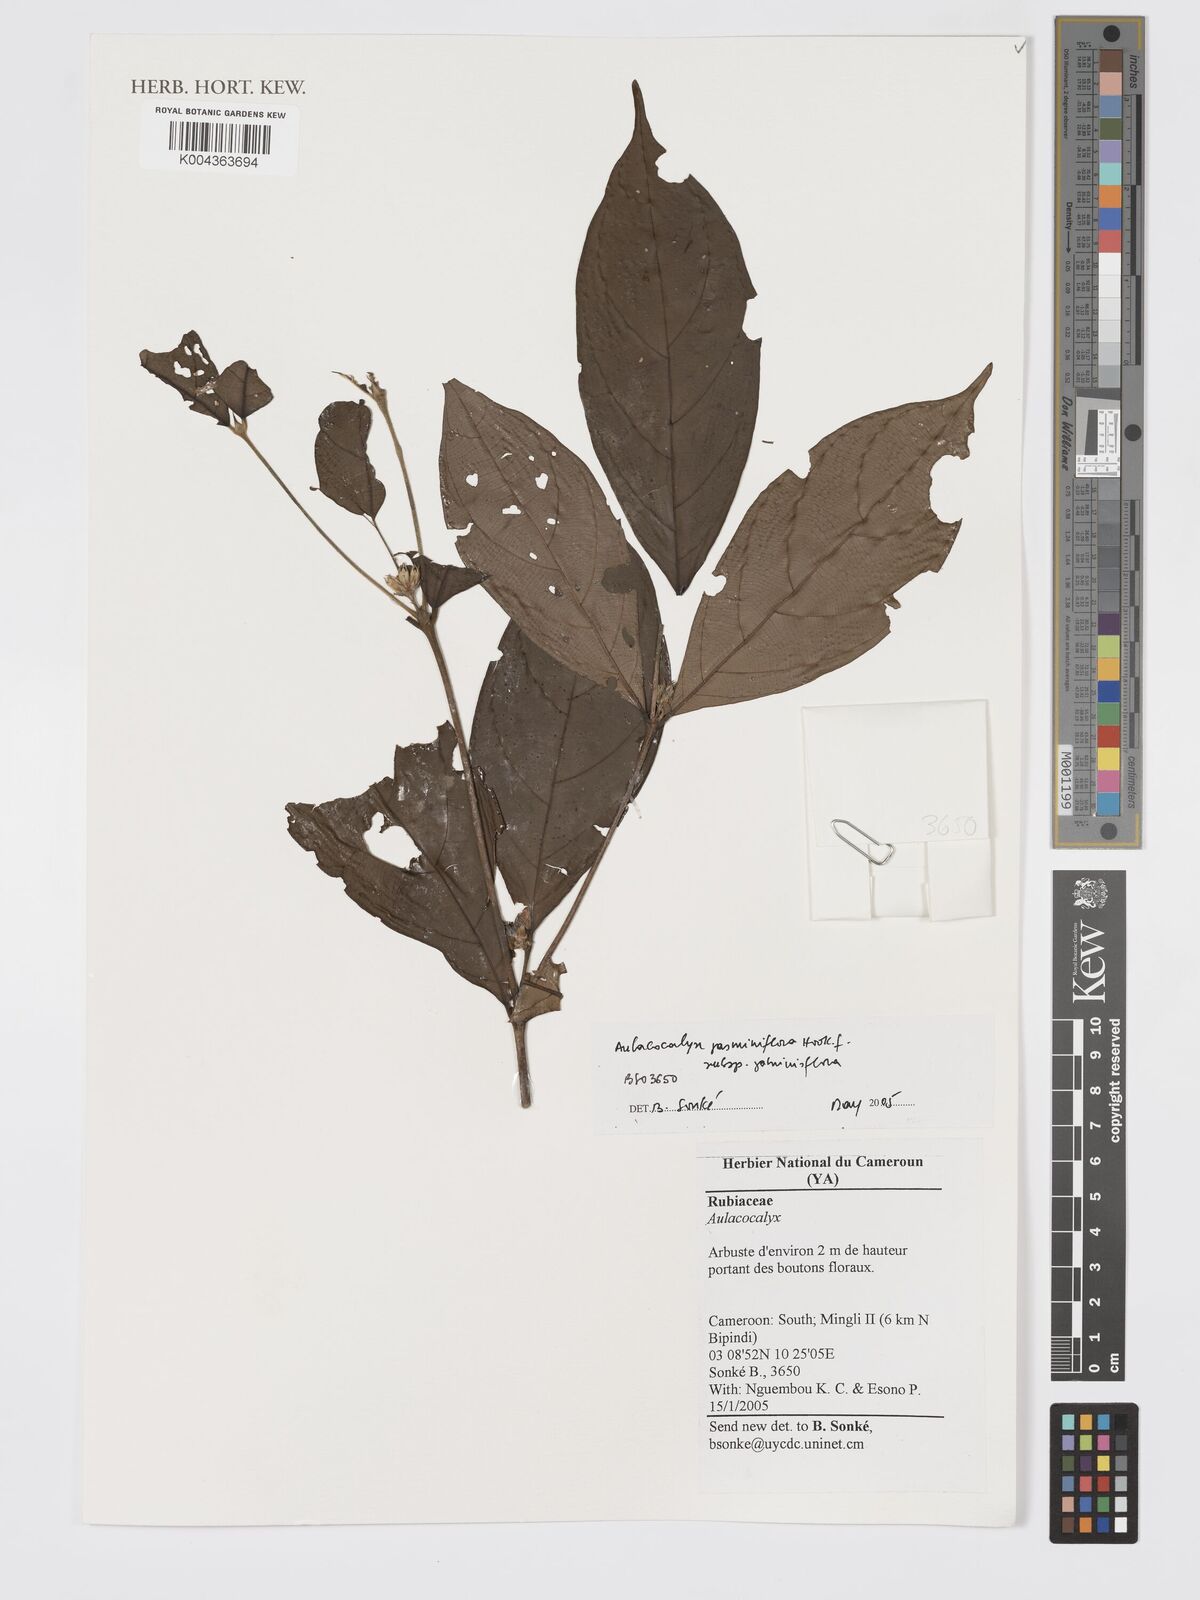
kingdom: Plantae
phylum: Tracheophyta
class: Magnoliopsida
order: Gentianales
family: Rubiaceae
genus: Aulacocalyx
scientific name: Aulacocalyx jasminiflora
